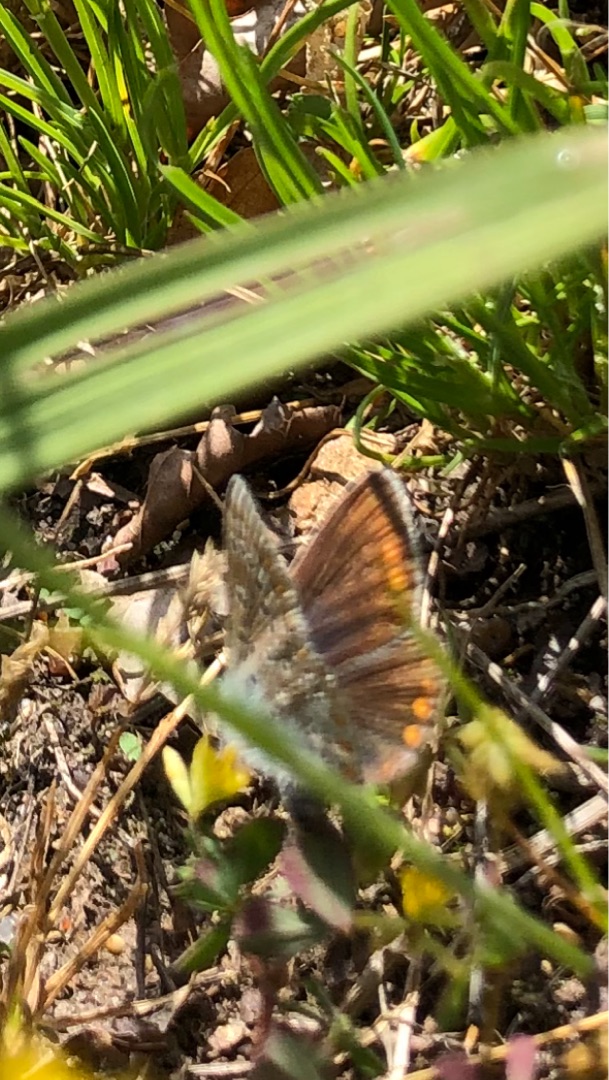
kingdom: Animalia
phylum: Arthropoda
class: Insecta
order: Lepidoptera
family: Lycaenidae
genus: Aricia
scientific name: Aricia agestis
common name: Rødplettet blåfugl
